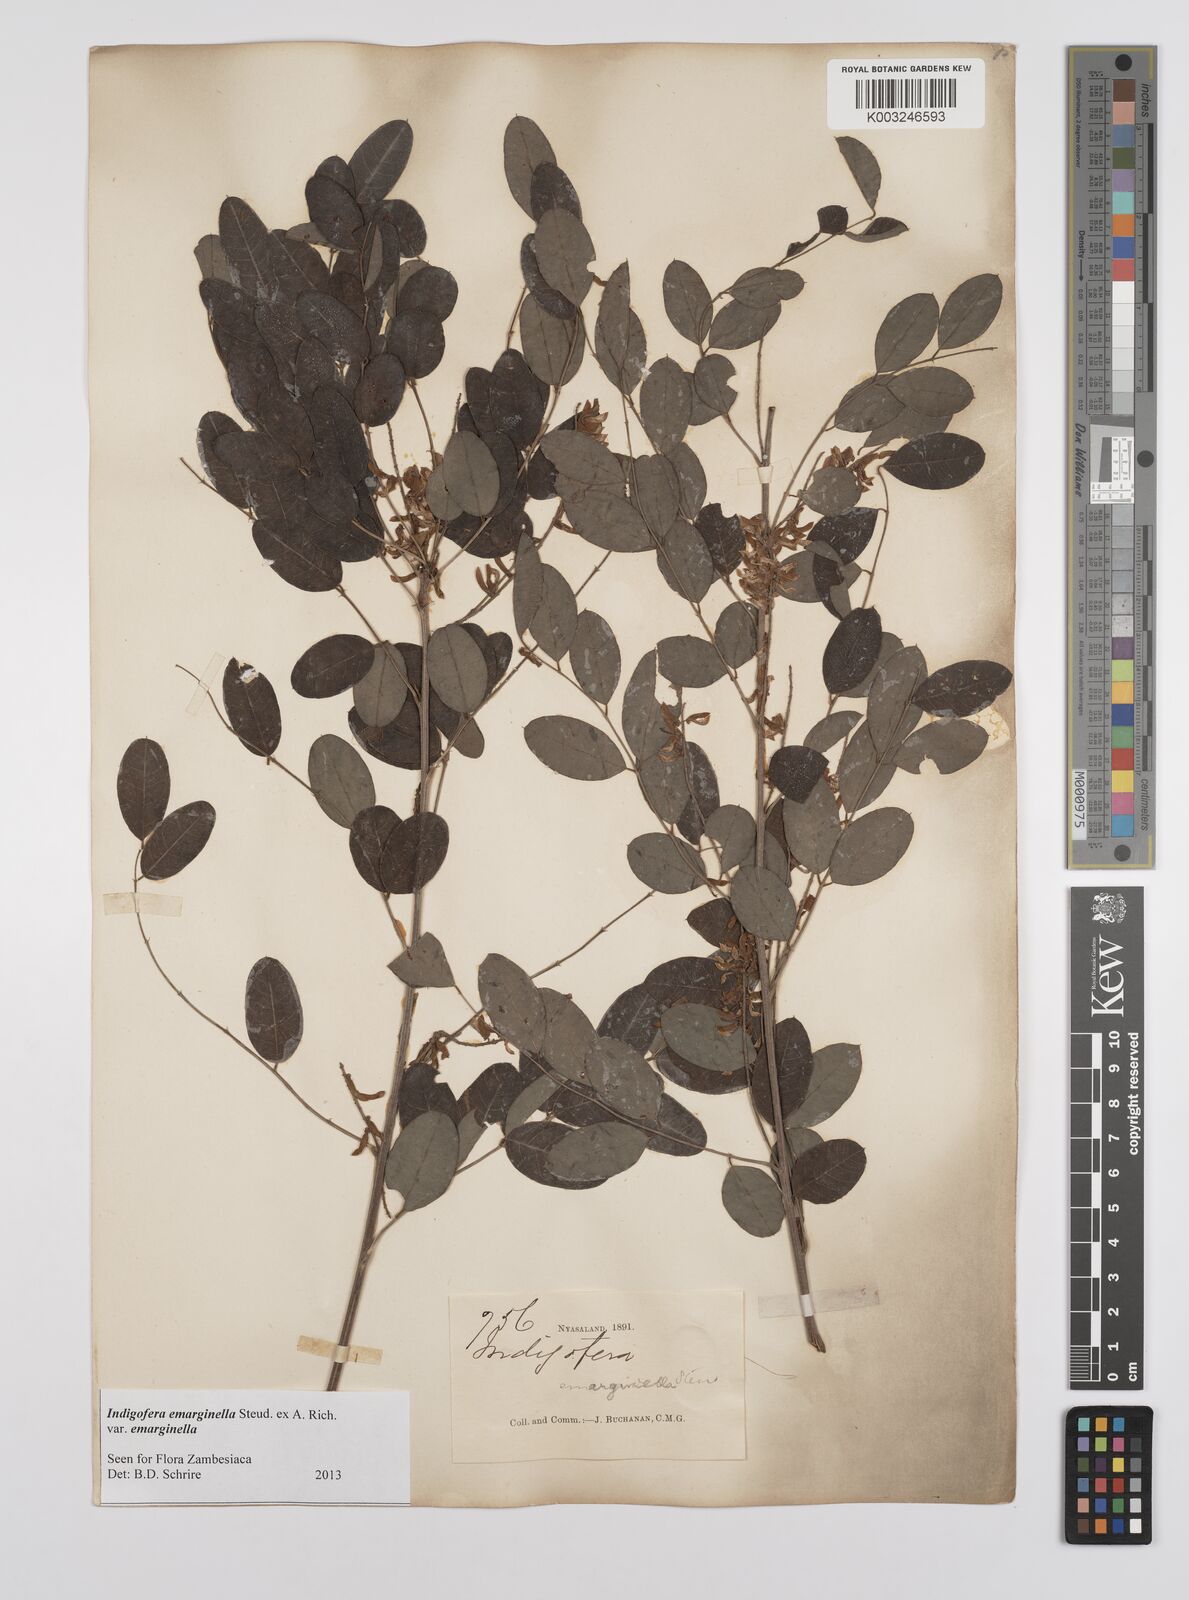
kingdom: Plantae
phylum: Tracheophyta
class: Magnoliopsida
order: Fabales
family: Fabaceae
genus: Indigofera
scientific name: Indigofera emarginella
